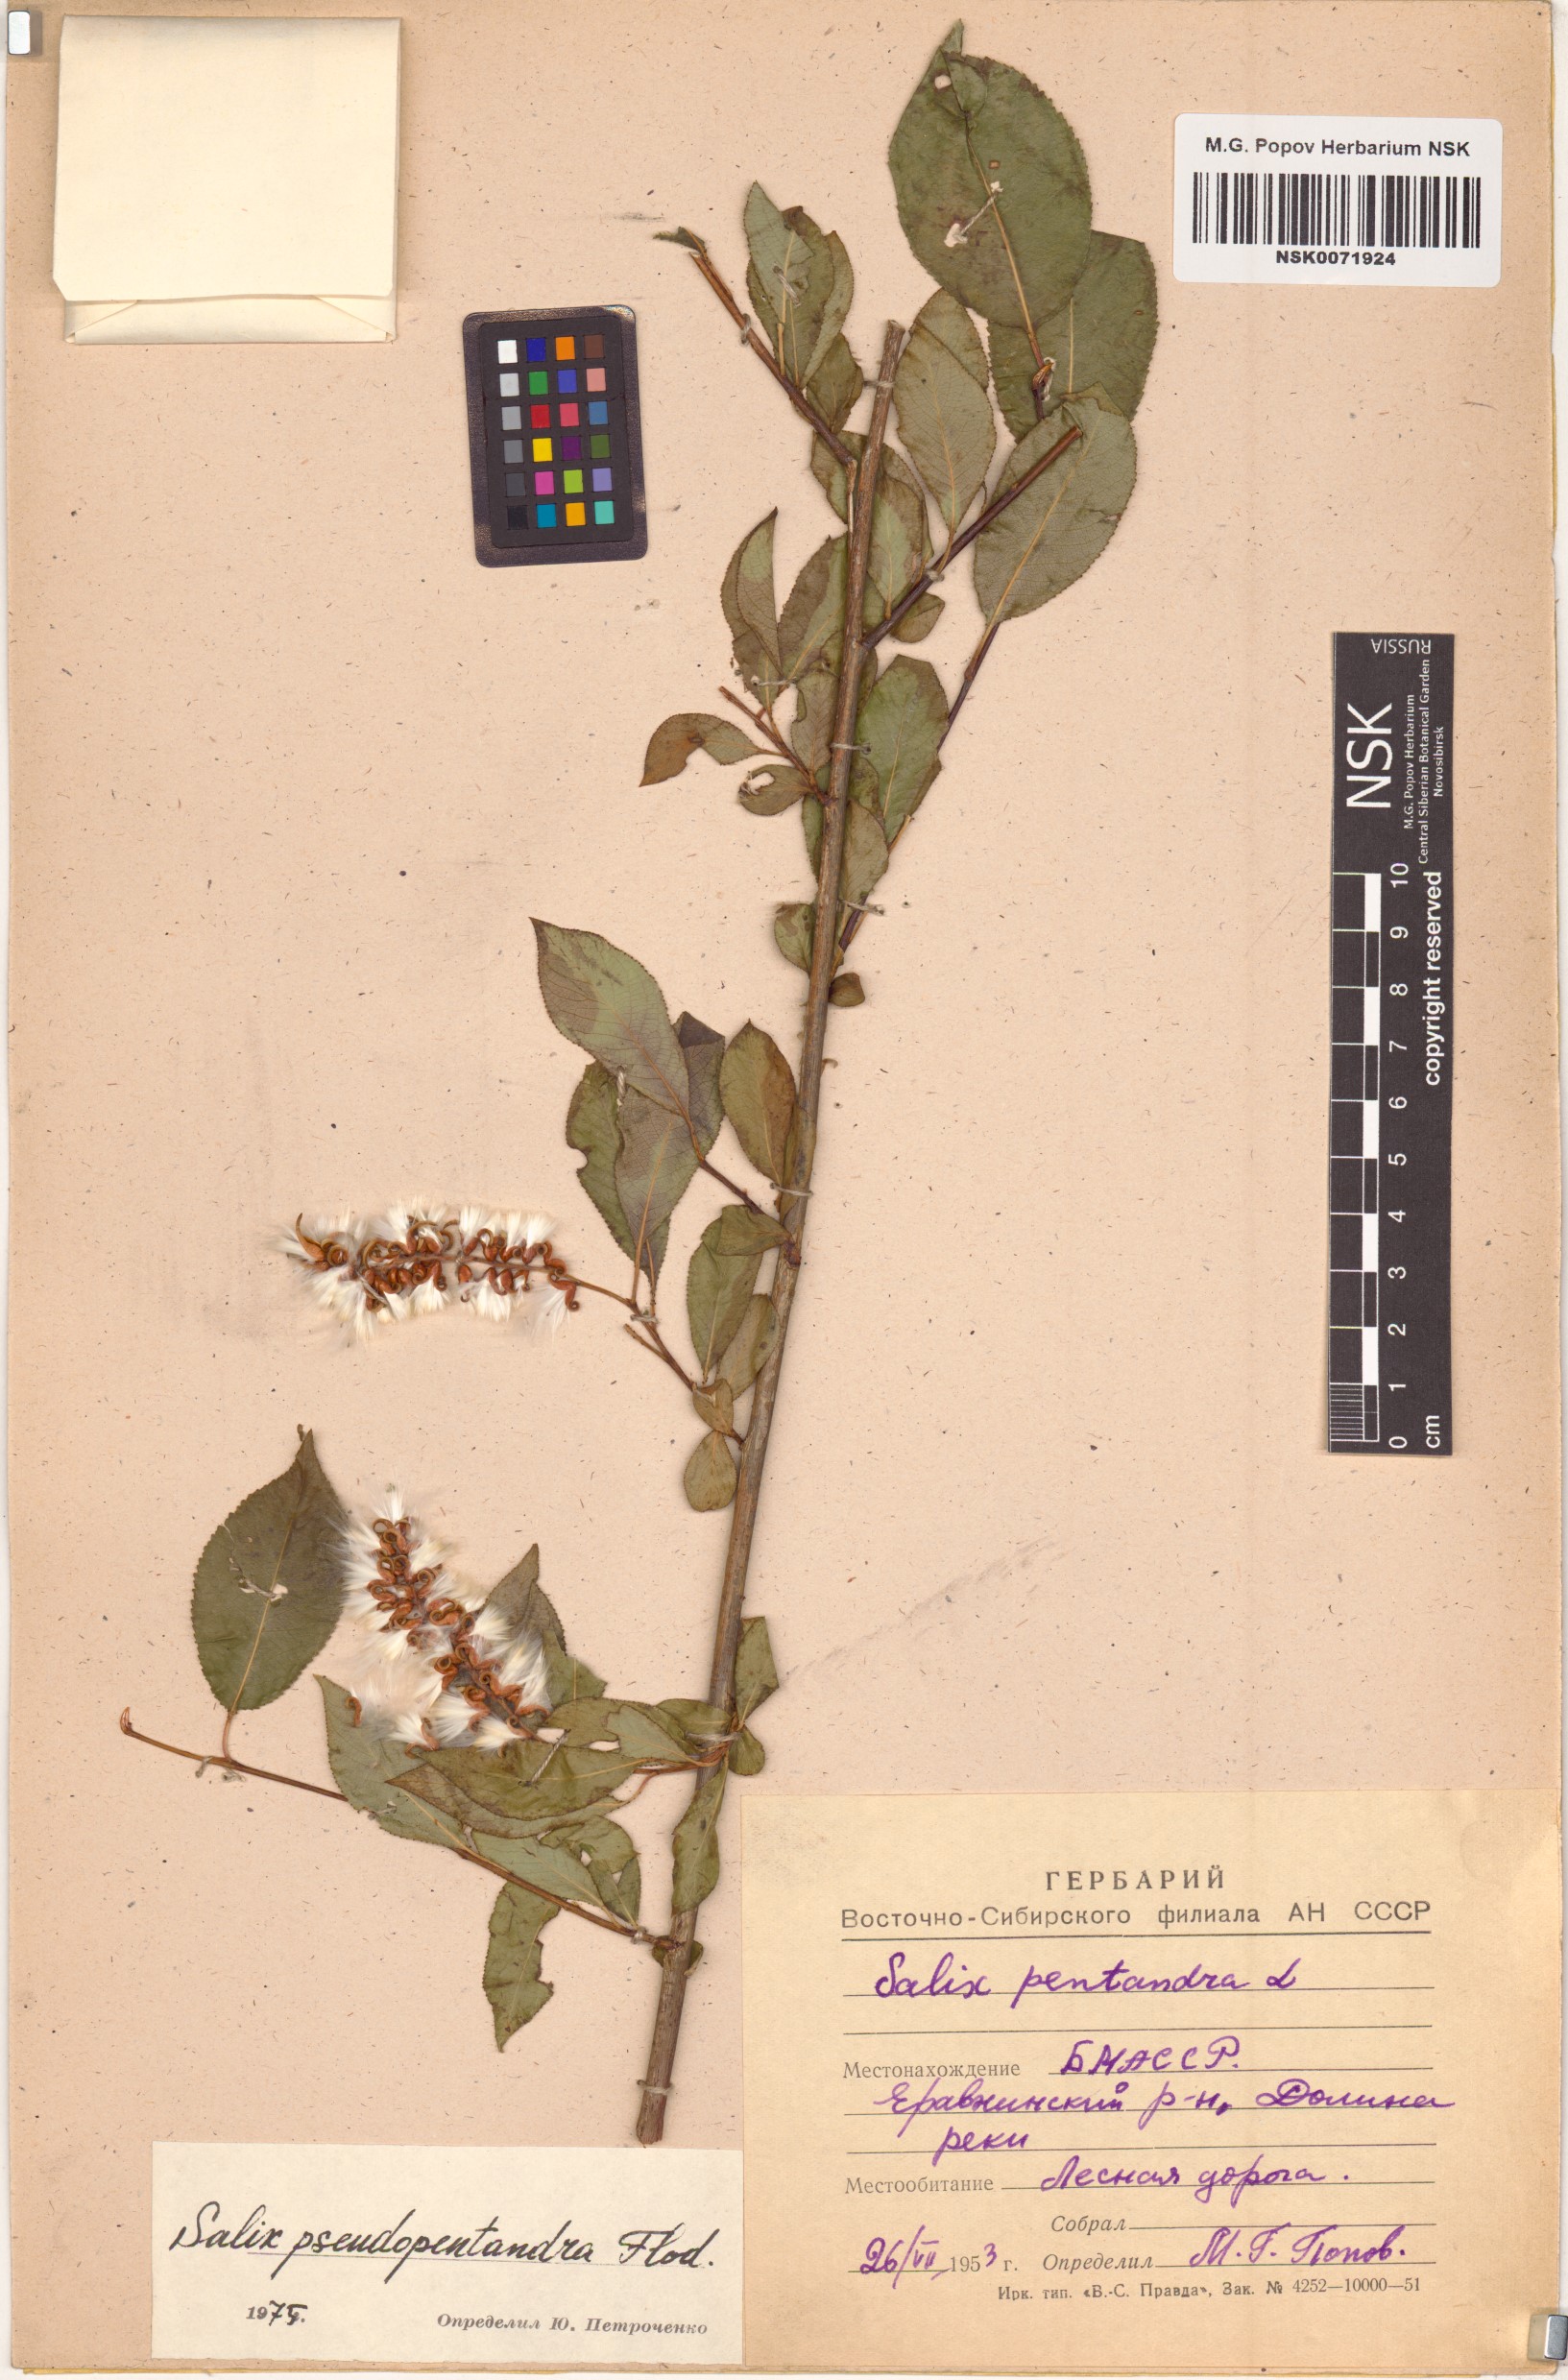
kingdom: Plantae
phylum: Tracheophyta
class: Magnoliopsida
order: Malpighiales
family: Salicaceae
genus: Salix
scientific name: Salix pseudopentandra
